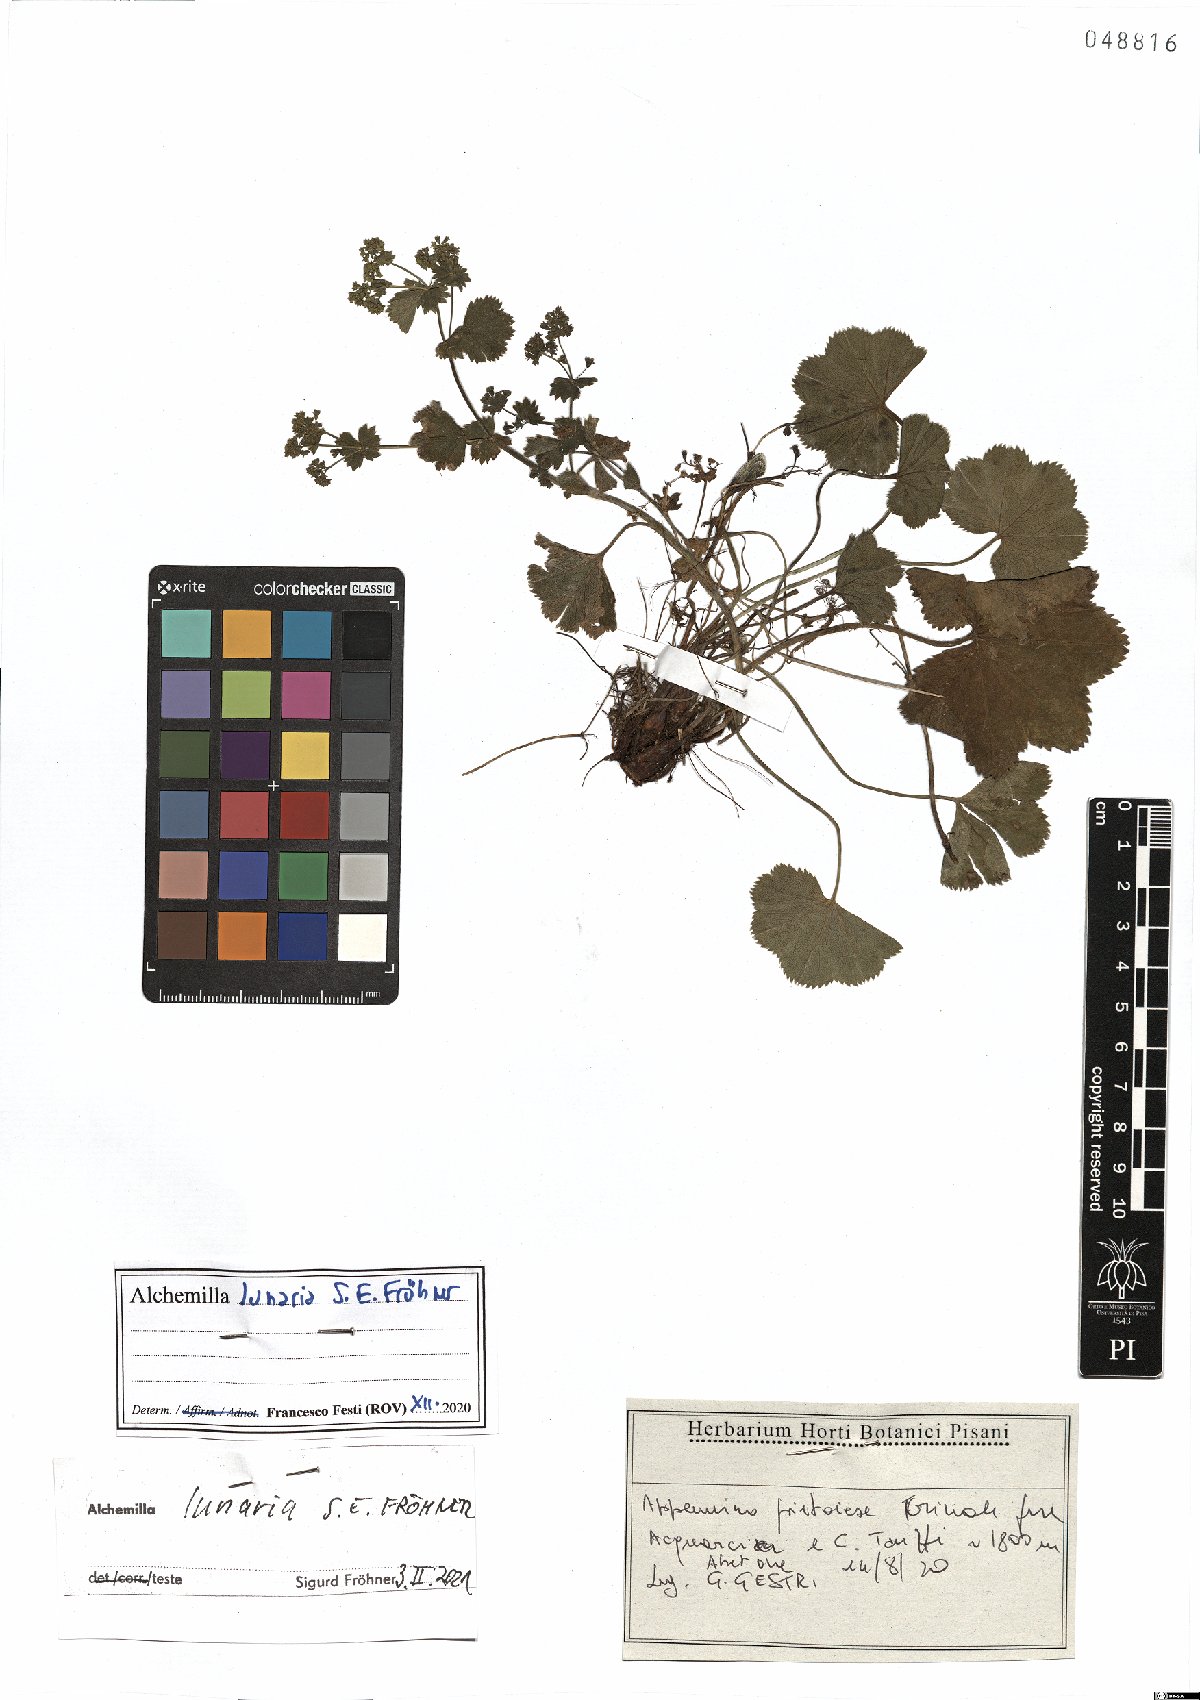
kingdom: Plantae
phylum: Tracheophyta
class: Magnoliopsida
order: Rosales
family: Rosaceae
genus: Alchemilla
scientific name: Alchemilla lunaria
